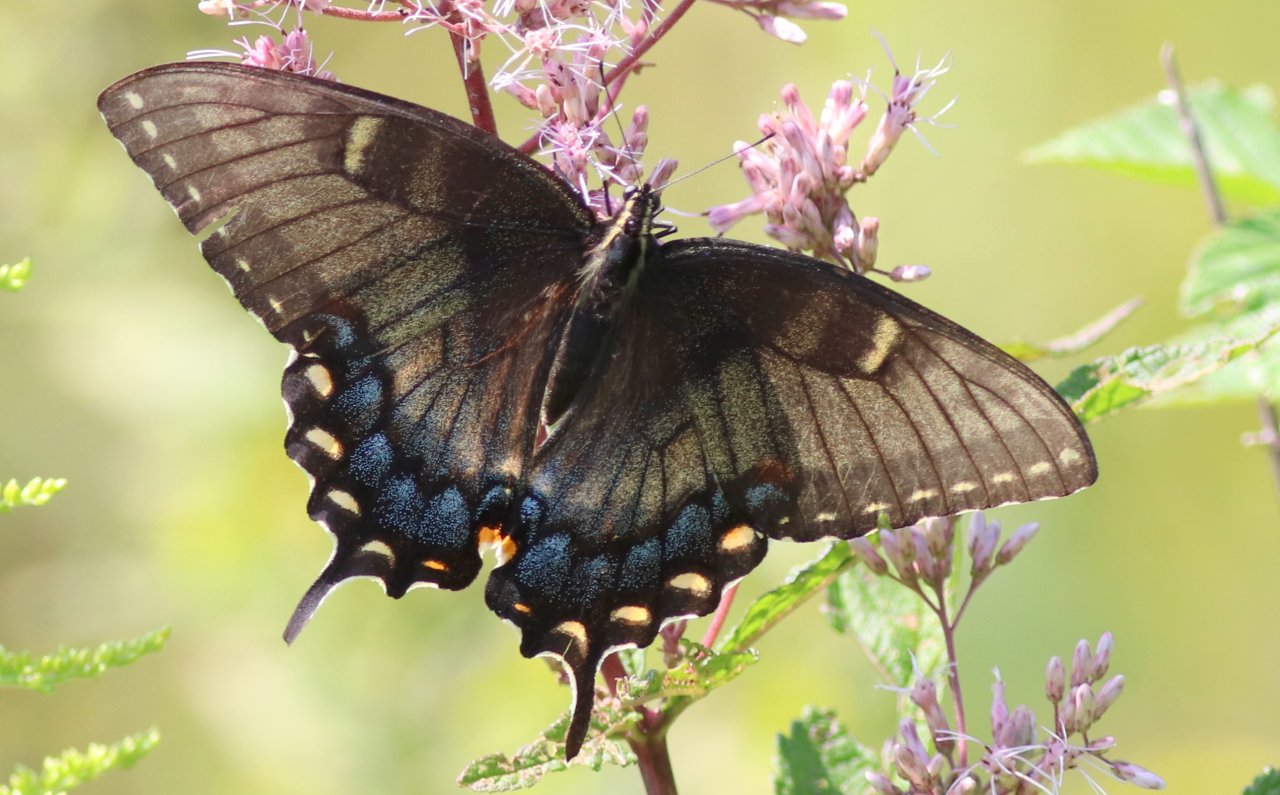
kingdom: Animalia
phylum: Arthropoda
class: Insecta
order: Lepidoptera
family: Papilionidae
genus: Pterourus
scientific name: Pterourus glaucus
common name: Eastern Tiger Swallowtail
